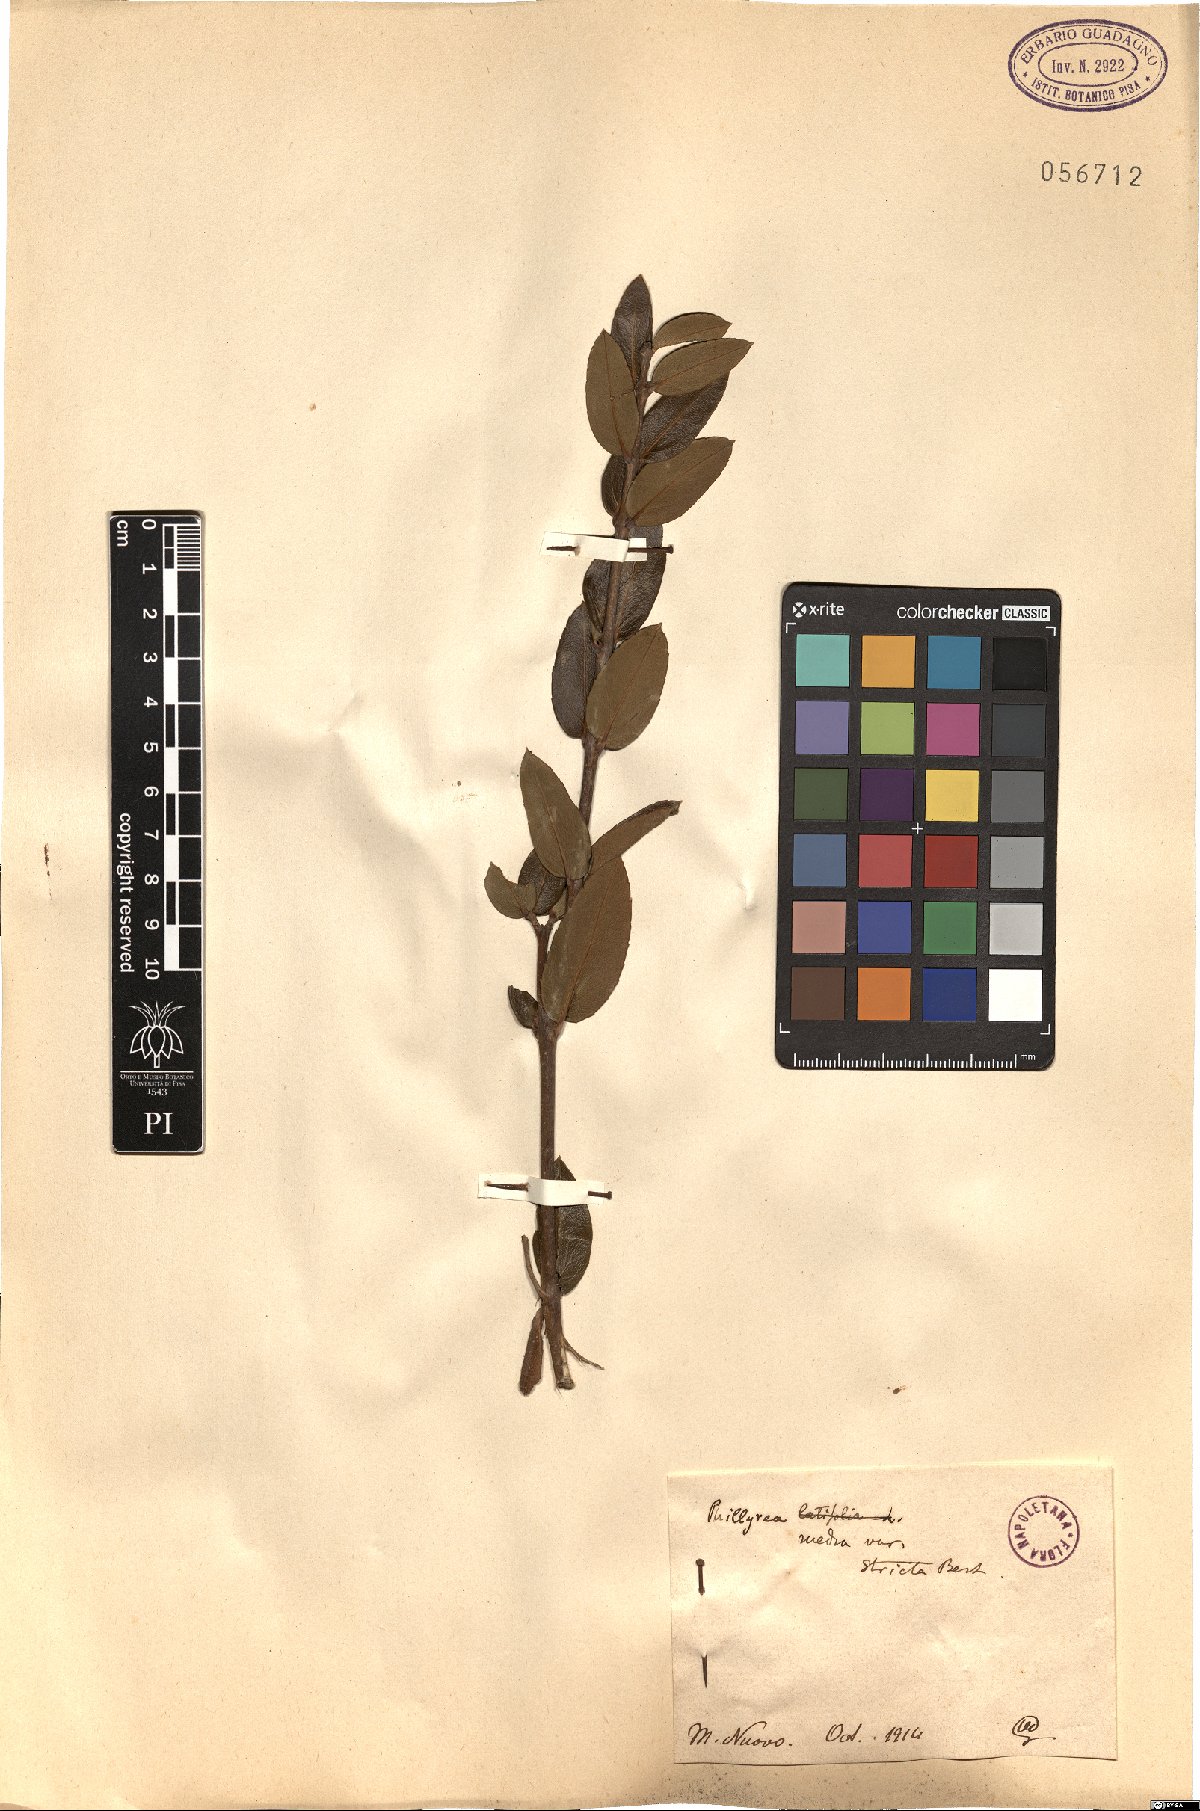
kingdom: Plantae
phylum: Tracheophyta
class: Magnoliopsida
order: Lamiales
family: Oleaceae
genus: Phillyrea
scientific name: Phillyrea latifolia
